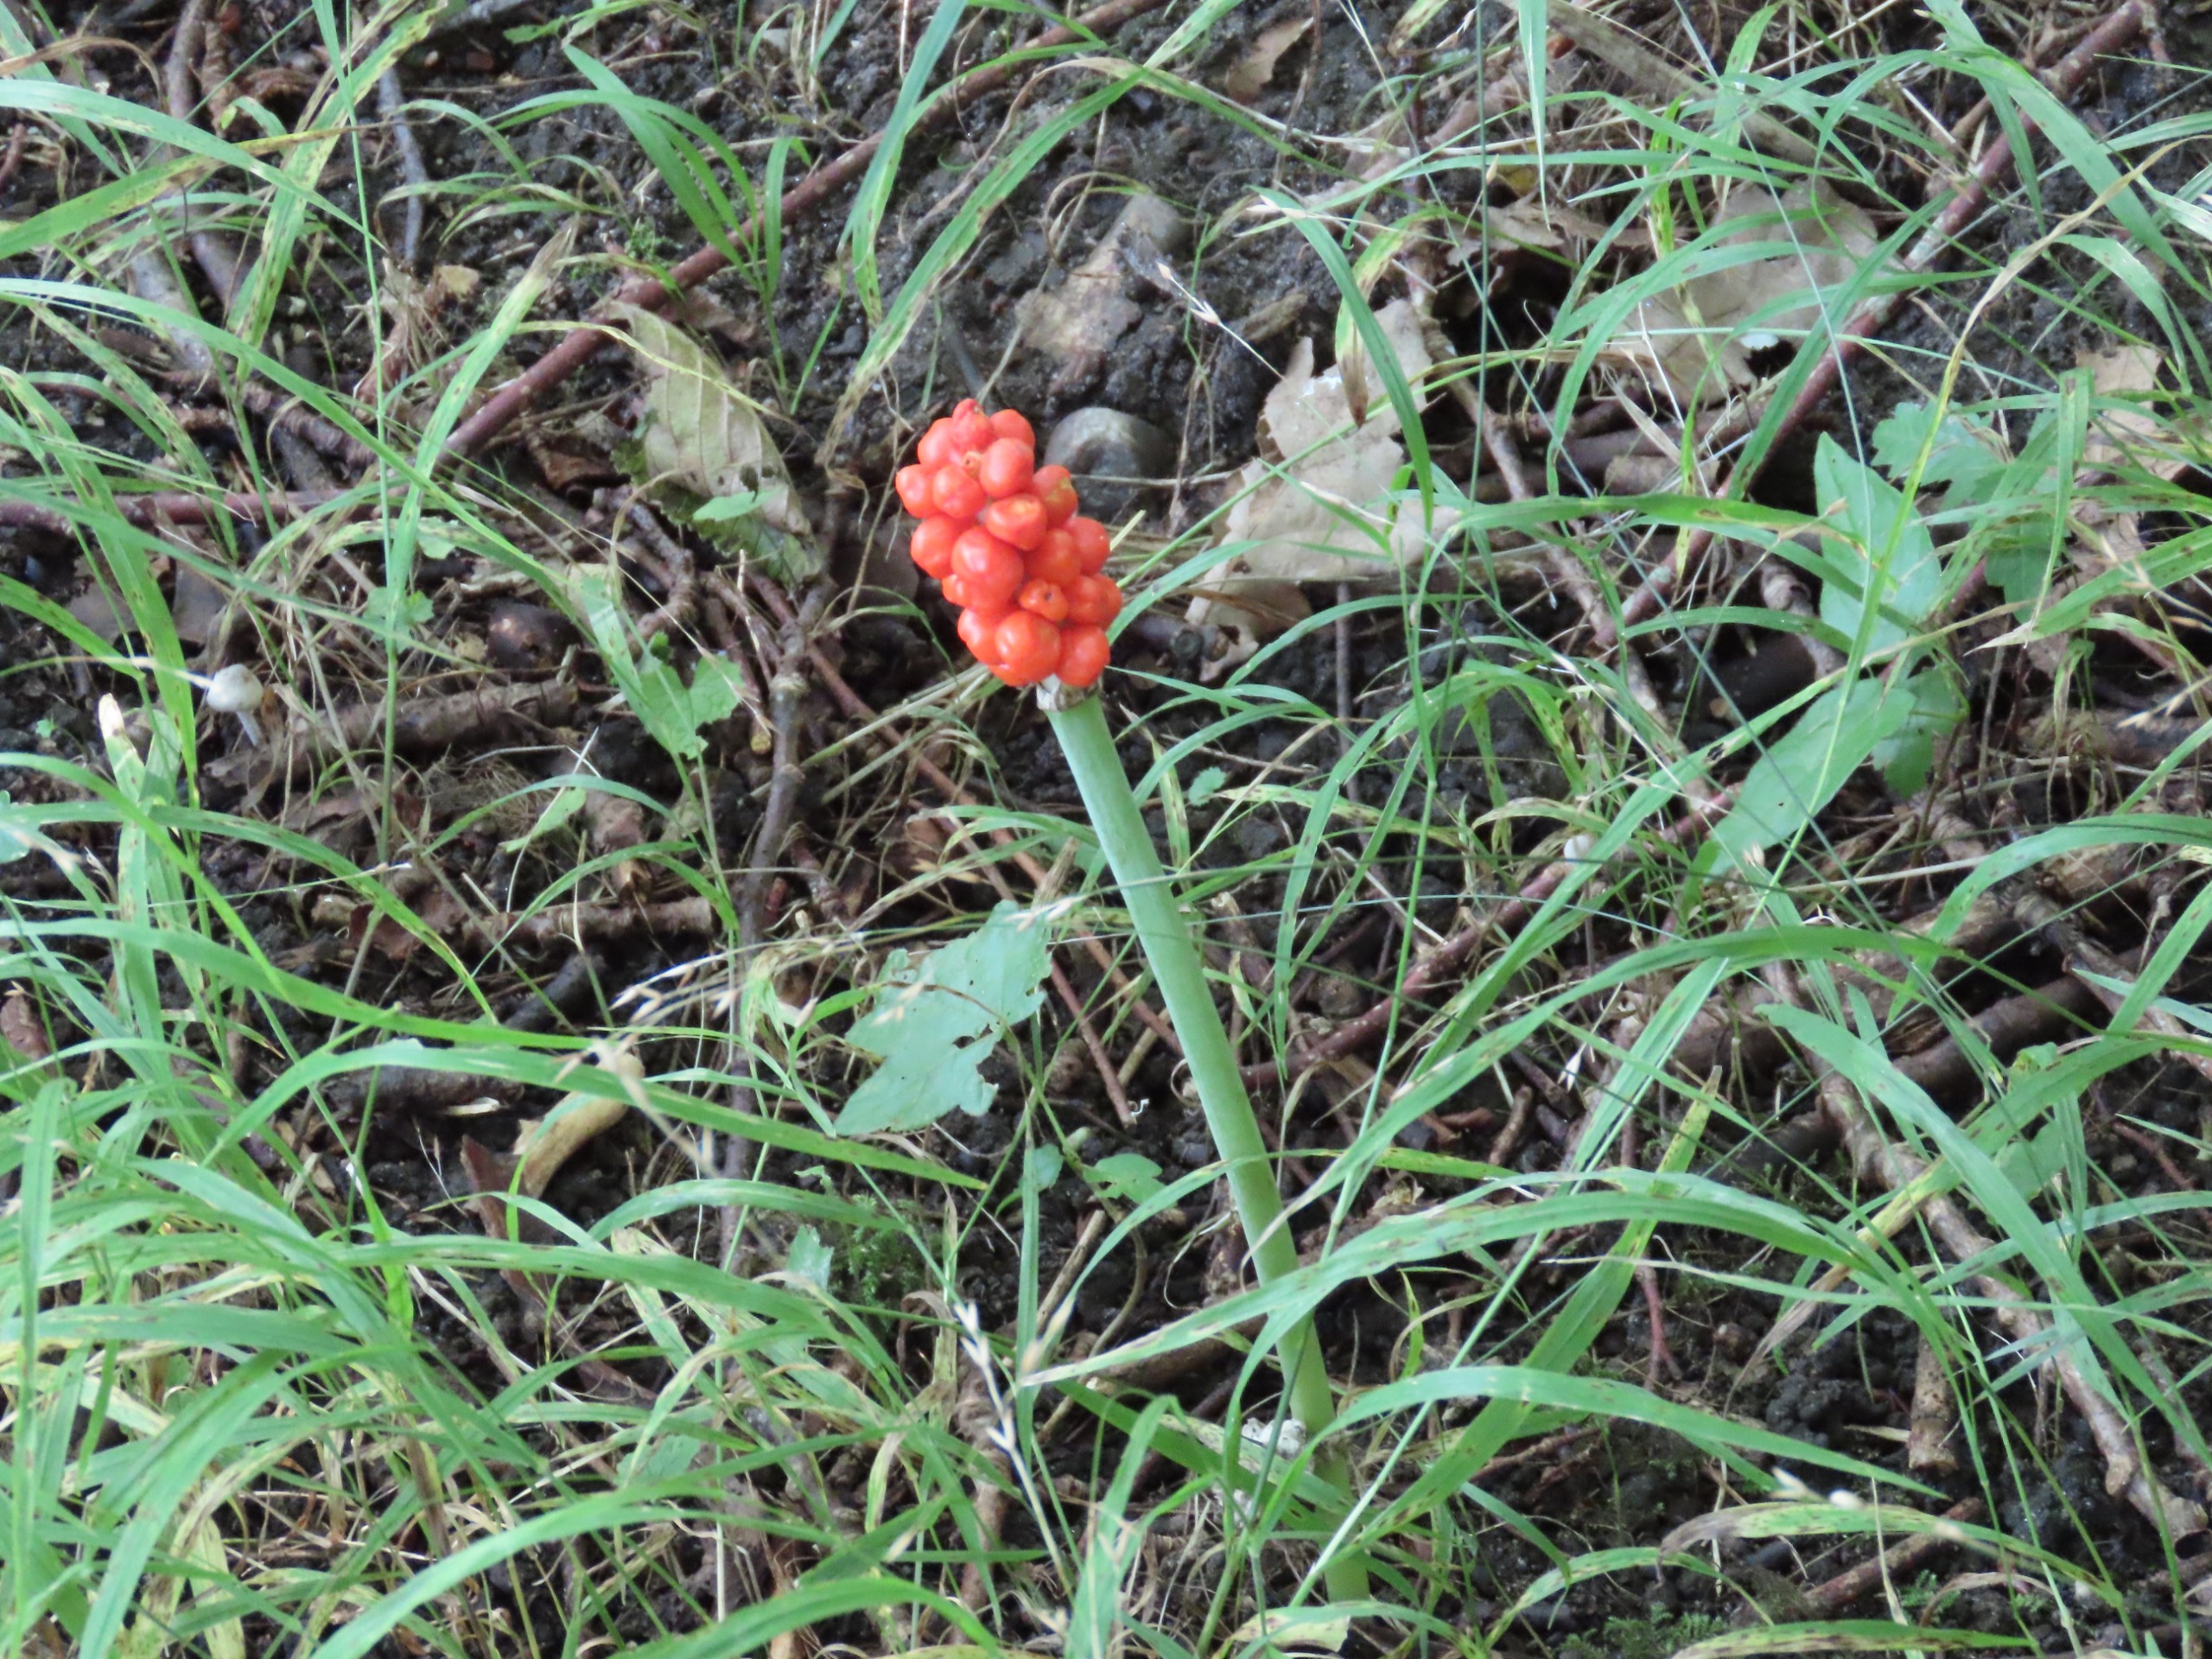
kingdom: Plantae
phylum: Tracheophyta
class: Liliopsida
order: Alismatales
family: Araceae
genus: Arum
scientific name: Arum
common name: Arumslægten
